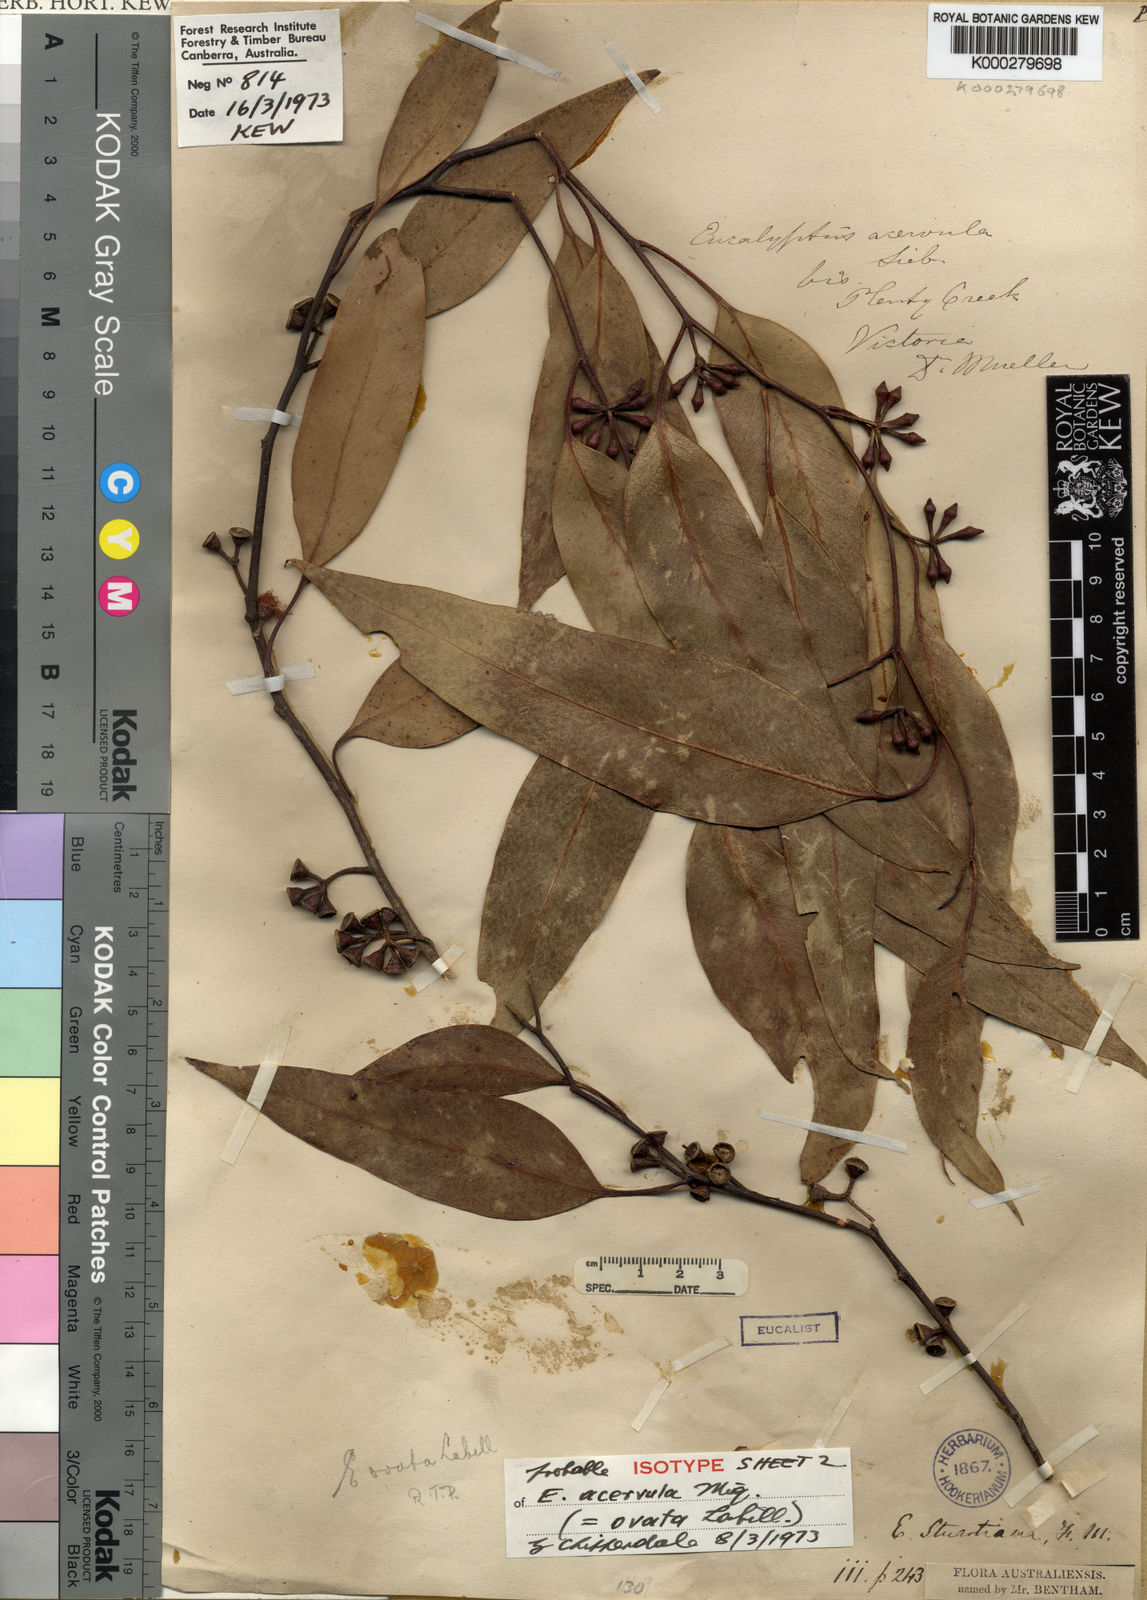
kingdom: Plantae
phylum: Tracheophyta
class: Magnoliopsida
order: Myrtales
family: Myrtaceae
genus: Eucalyptus
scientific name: Eucalyptus ovata
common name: Black-gum
